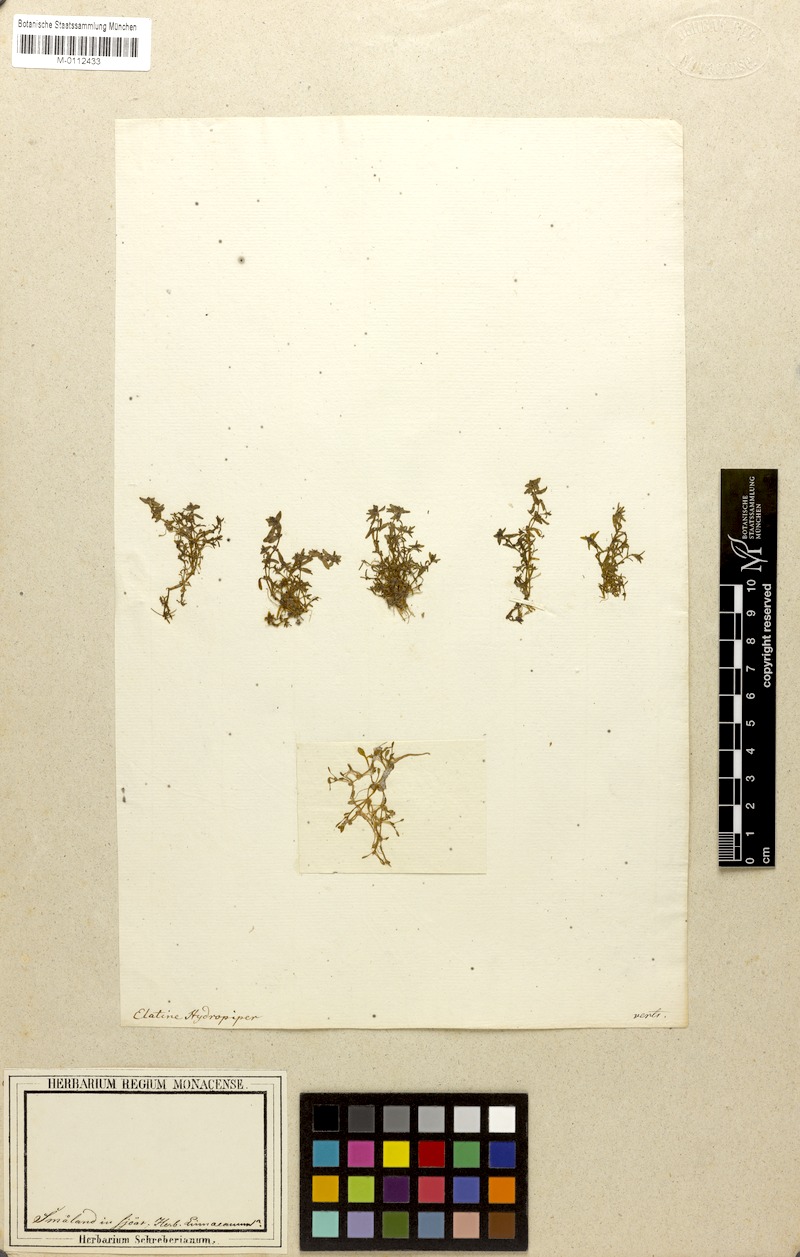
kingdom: Plantae
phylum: Tracheophyta
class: Magnoliopsida
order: Malpighiales
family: Elatinaceae
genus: Elatine
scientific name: Elatine hydropiper
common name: Eight-stamened waterwort
